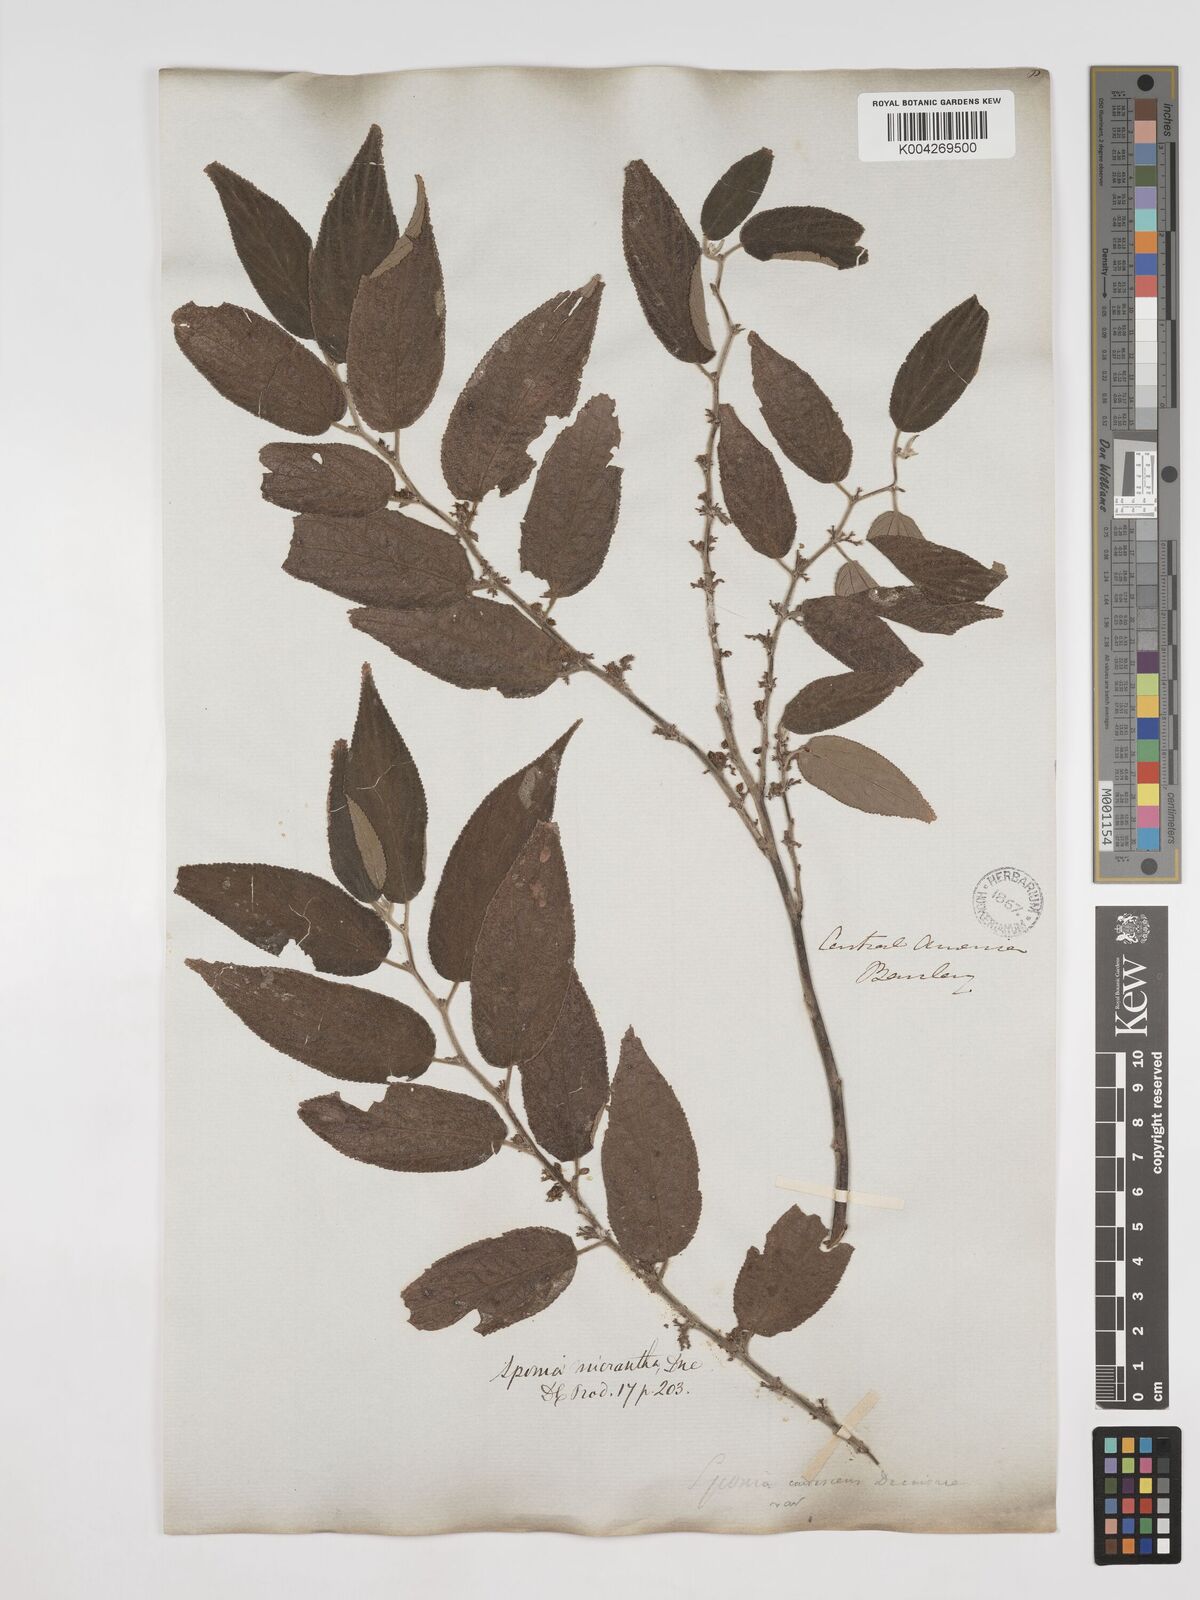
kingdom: Plantae
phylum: Tracheophyta
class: Magnoliopsida
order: Rosales
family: Cannabaceae
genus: Trema
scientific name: Trema micranthum
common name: Jamaican nettletree
